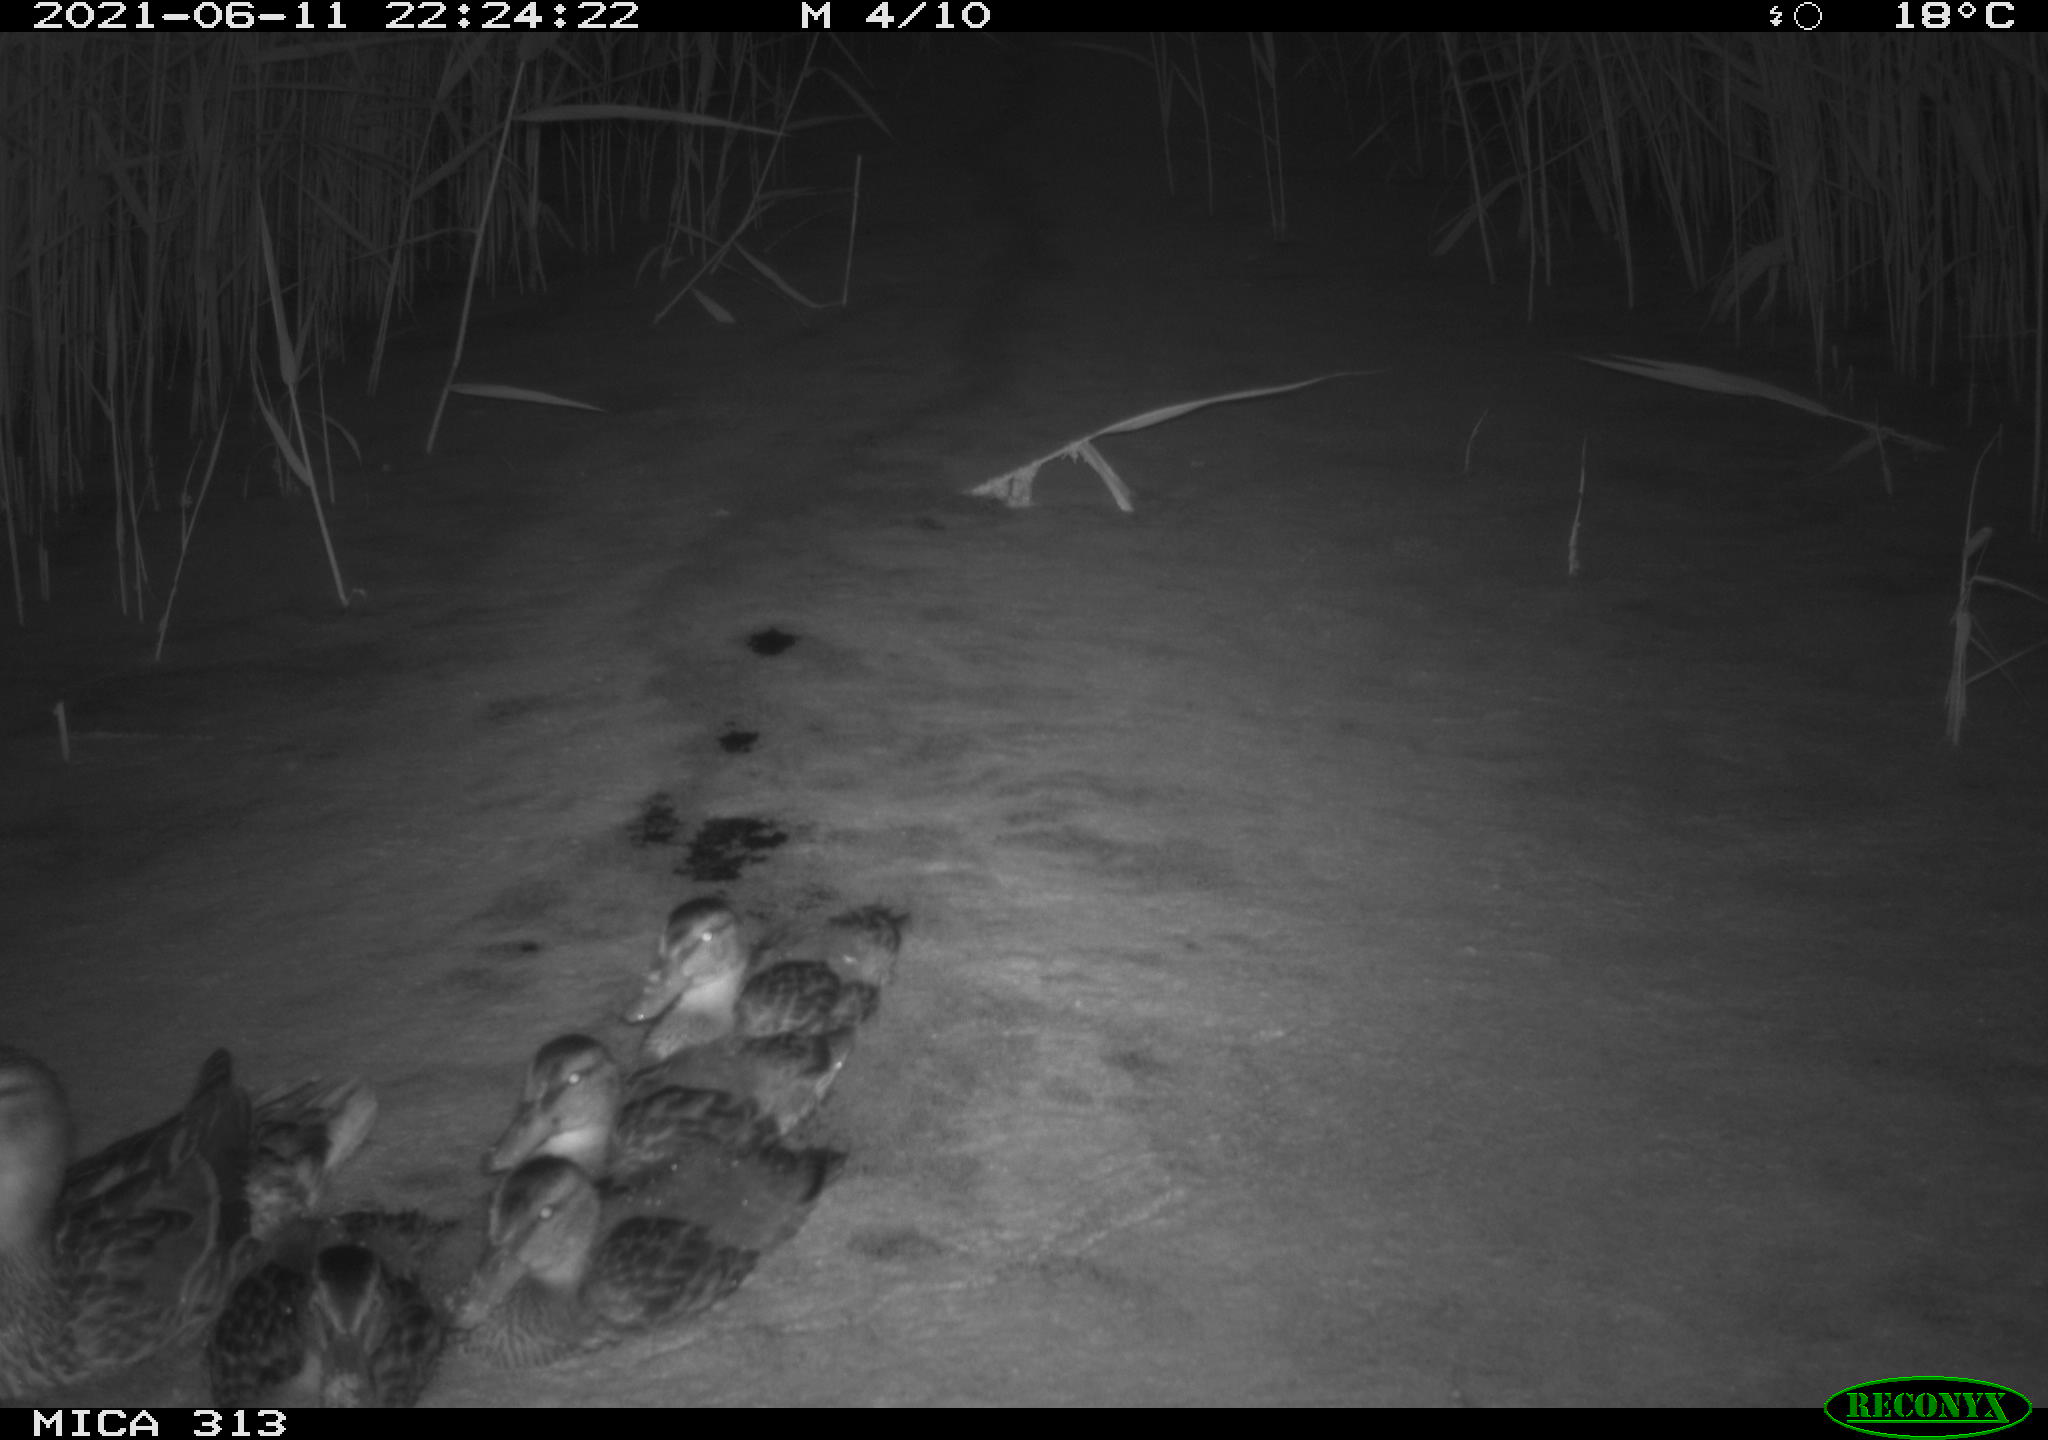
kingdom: Animalia
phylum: Chordata
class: Aves
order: Anseriformes
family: Anatidae
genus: Anas
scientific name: Anas
